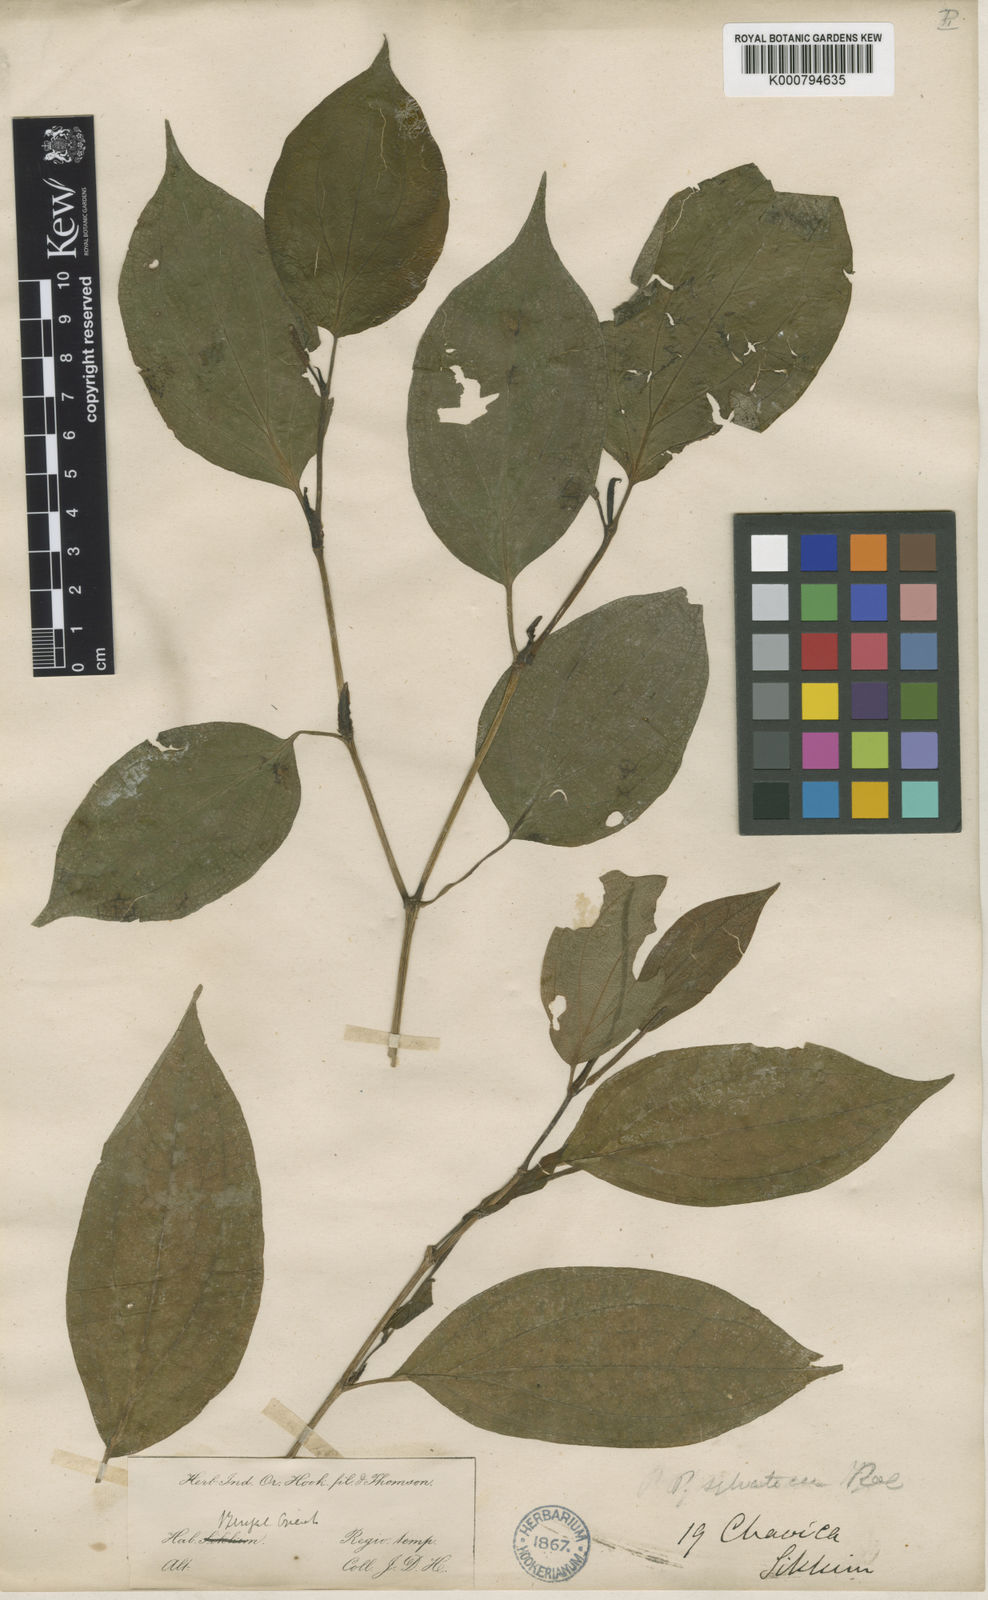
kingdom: Plantae
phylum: Tracheophyta
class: Magnoliopsida
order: Piperales
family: Piperaceae
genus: Piper
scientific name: Piper sylvaticum
